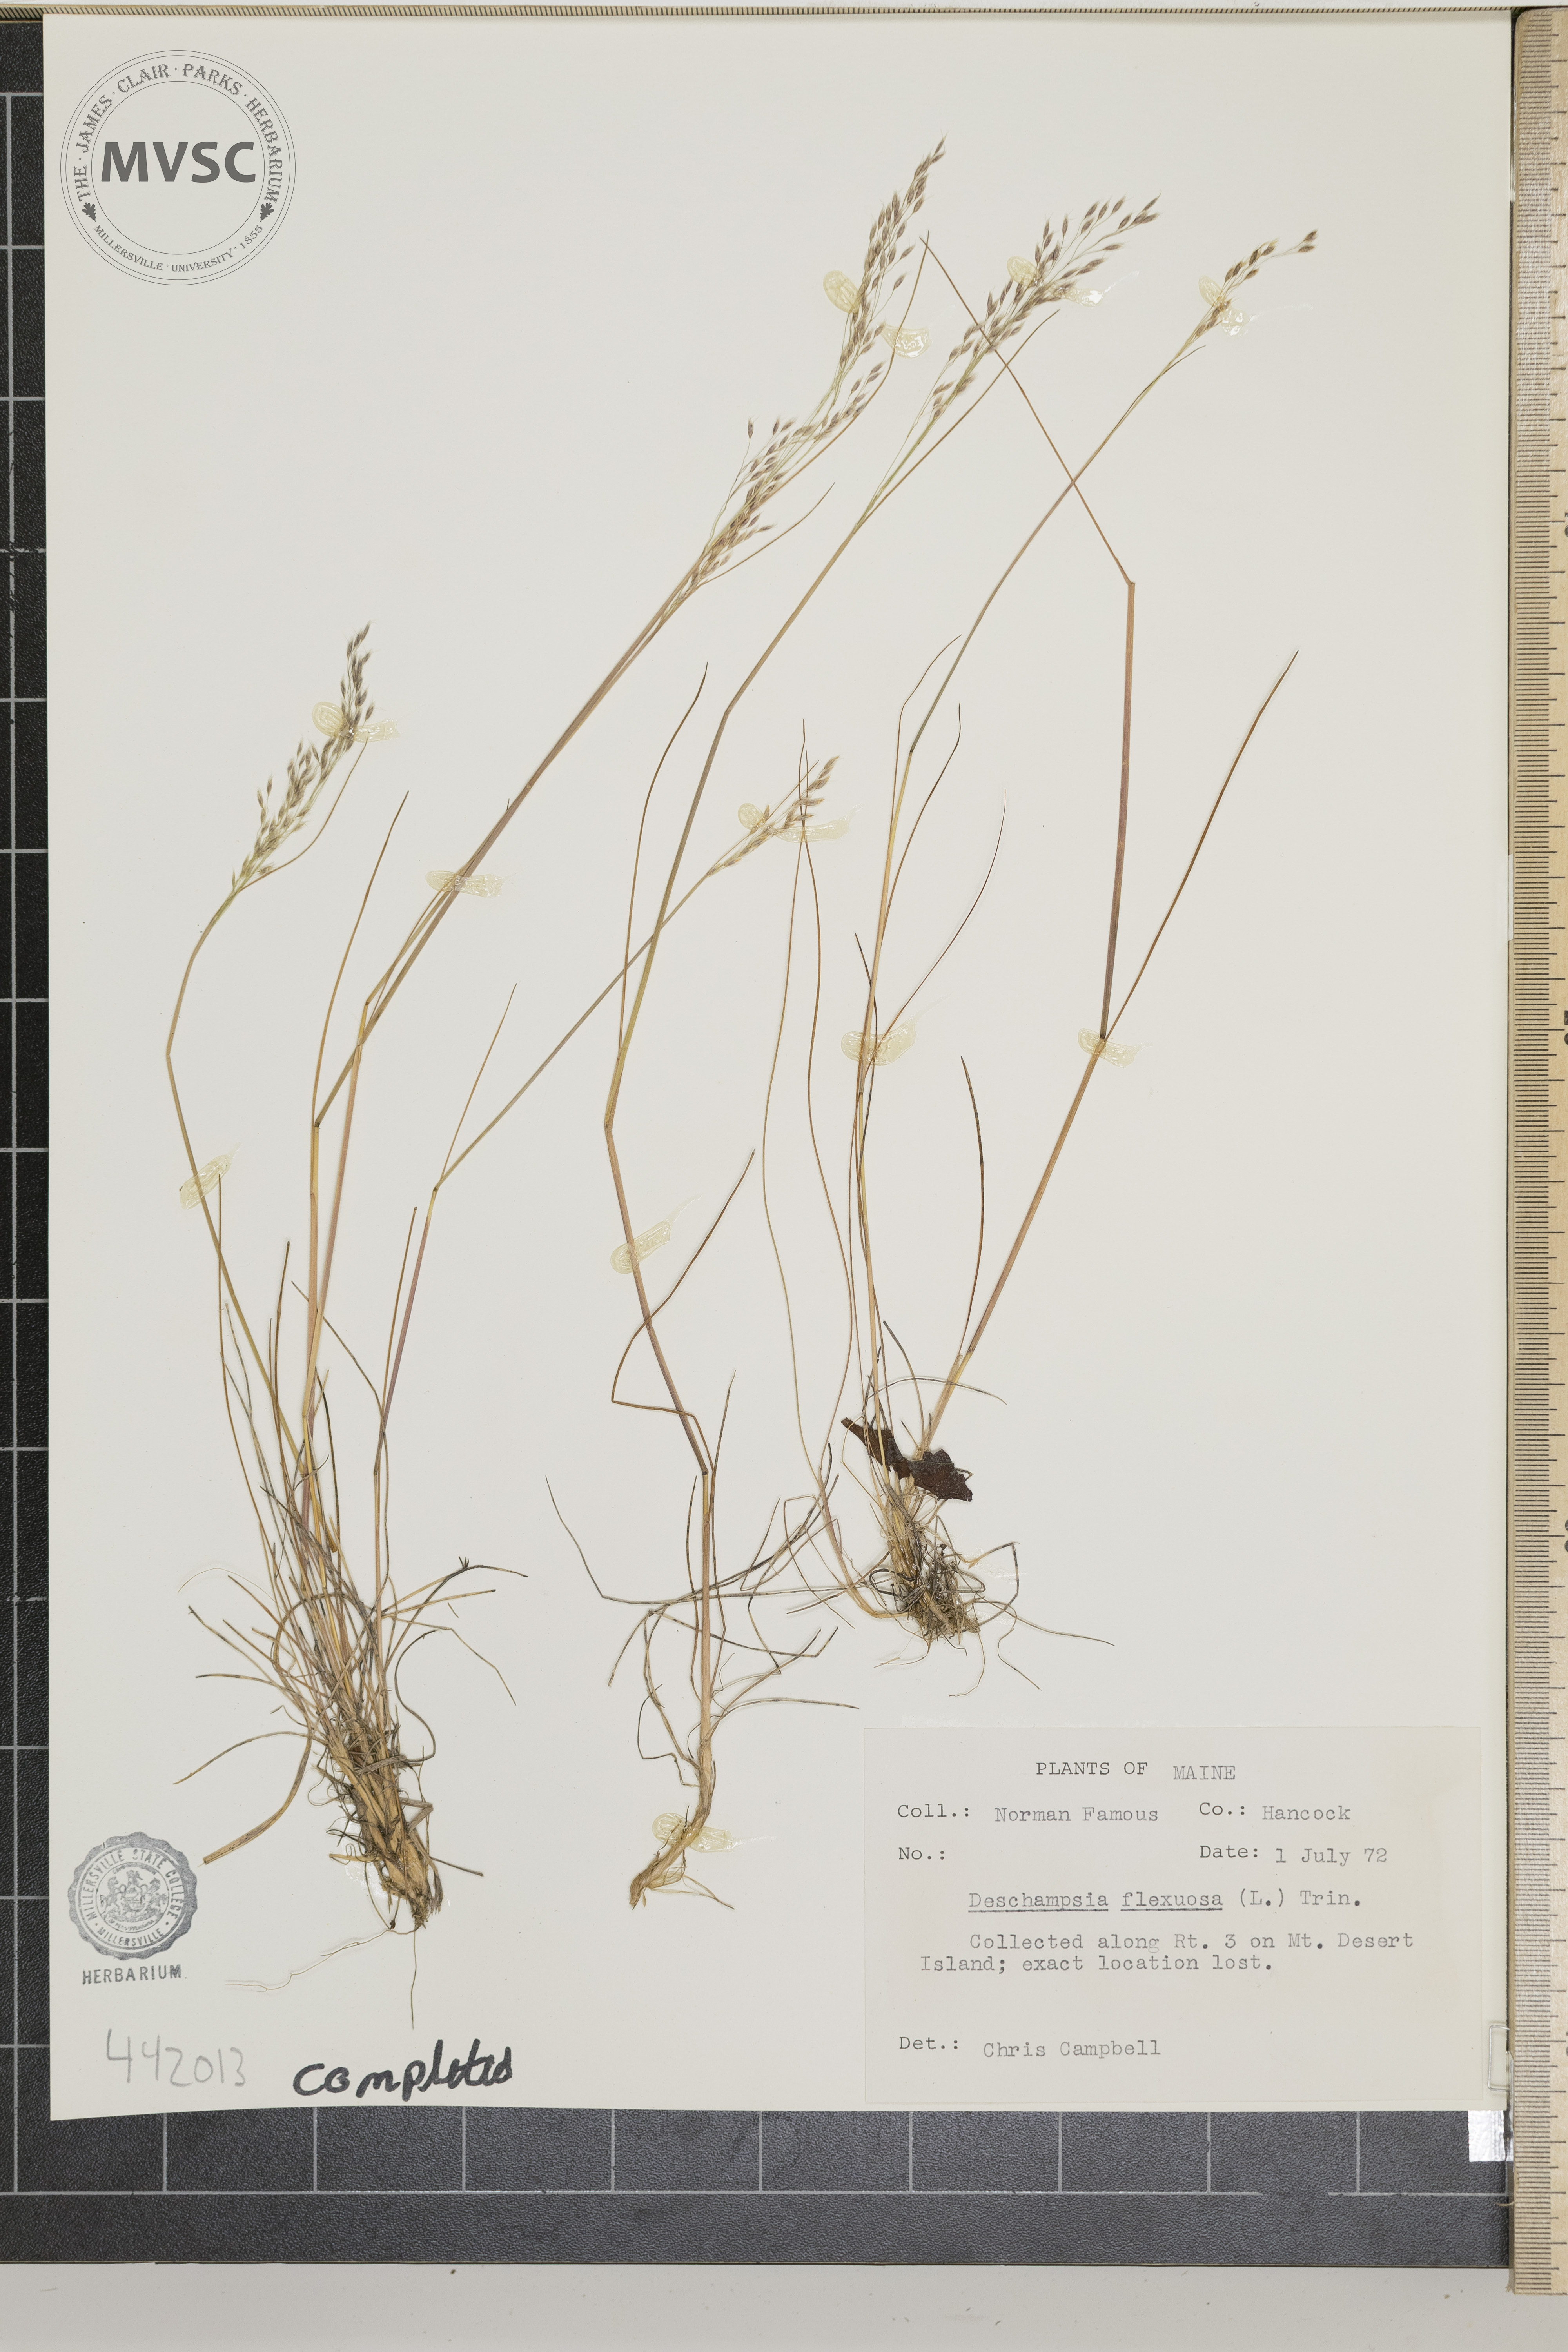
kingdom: Plantae
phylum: Tracheophyta
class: Liliopsida
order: Poales
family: Poaceae
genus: Avenella
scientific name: Avenella flexuosa
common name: Wavy hairgrass
